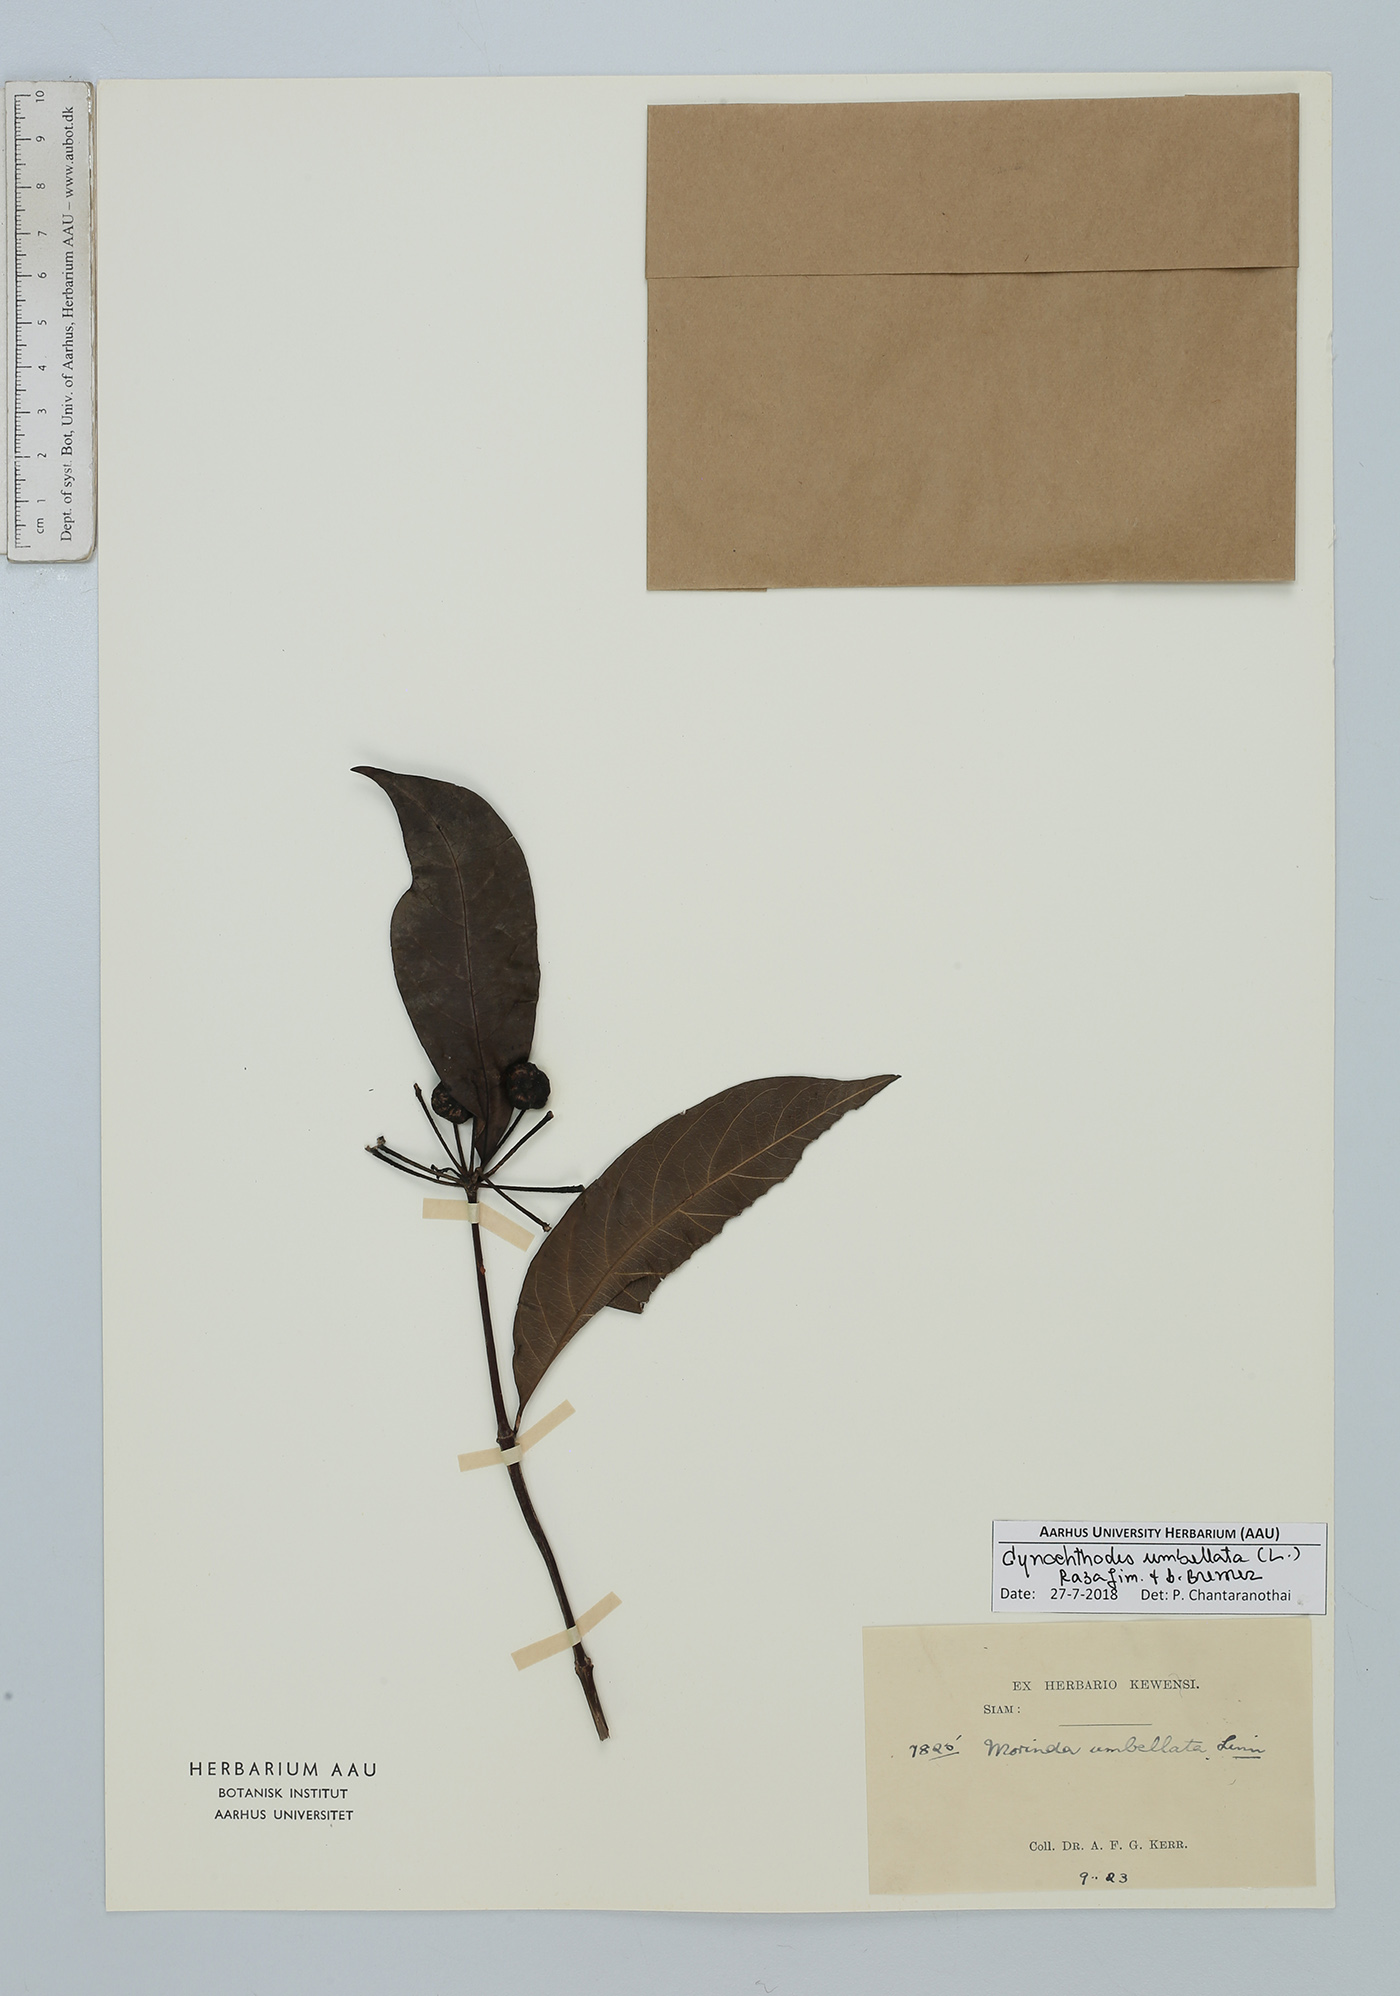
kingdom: Plantae
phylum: Tracheophyta
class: Magnoliopsida
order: Gentianales
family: Rubiaceae
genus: Gynochthodes
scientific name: Gynochthodes umbellata
